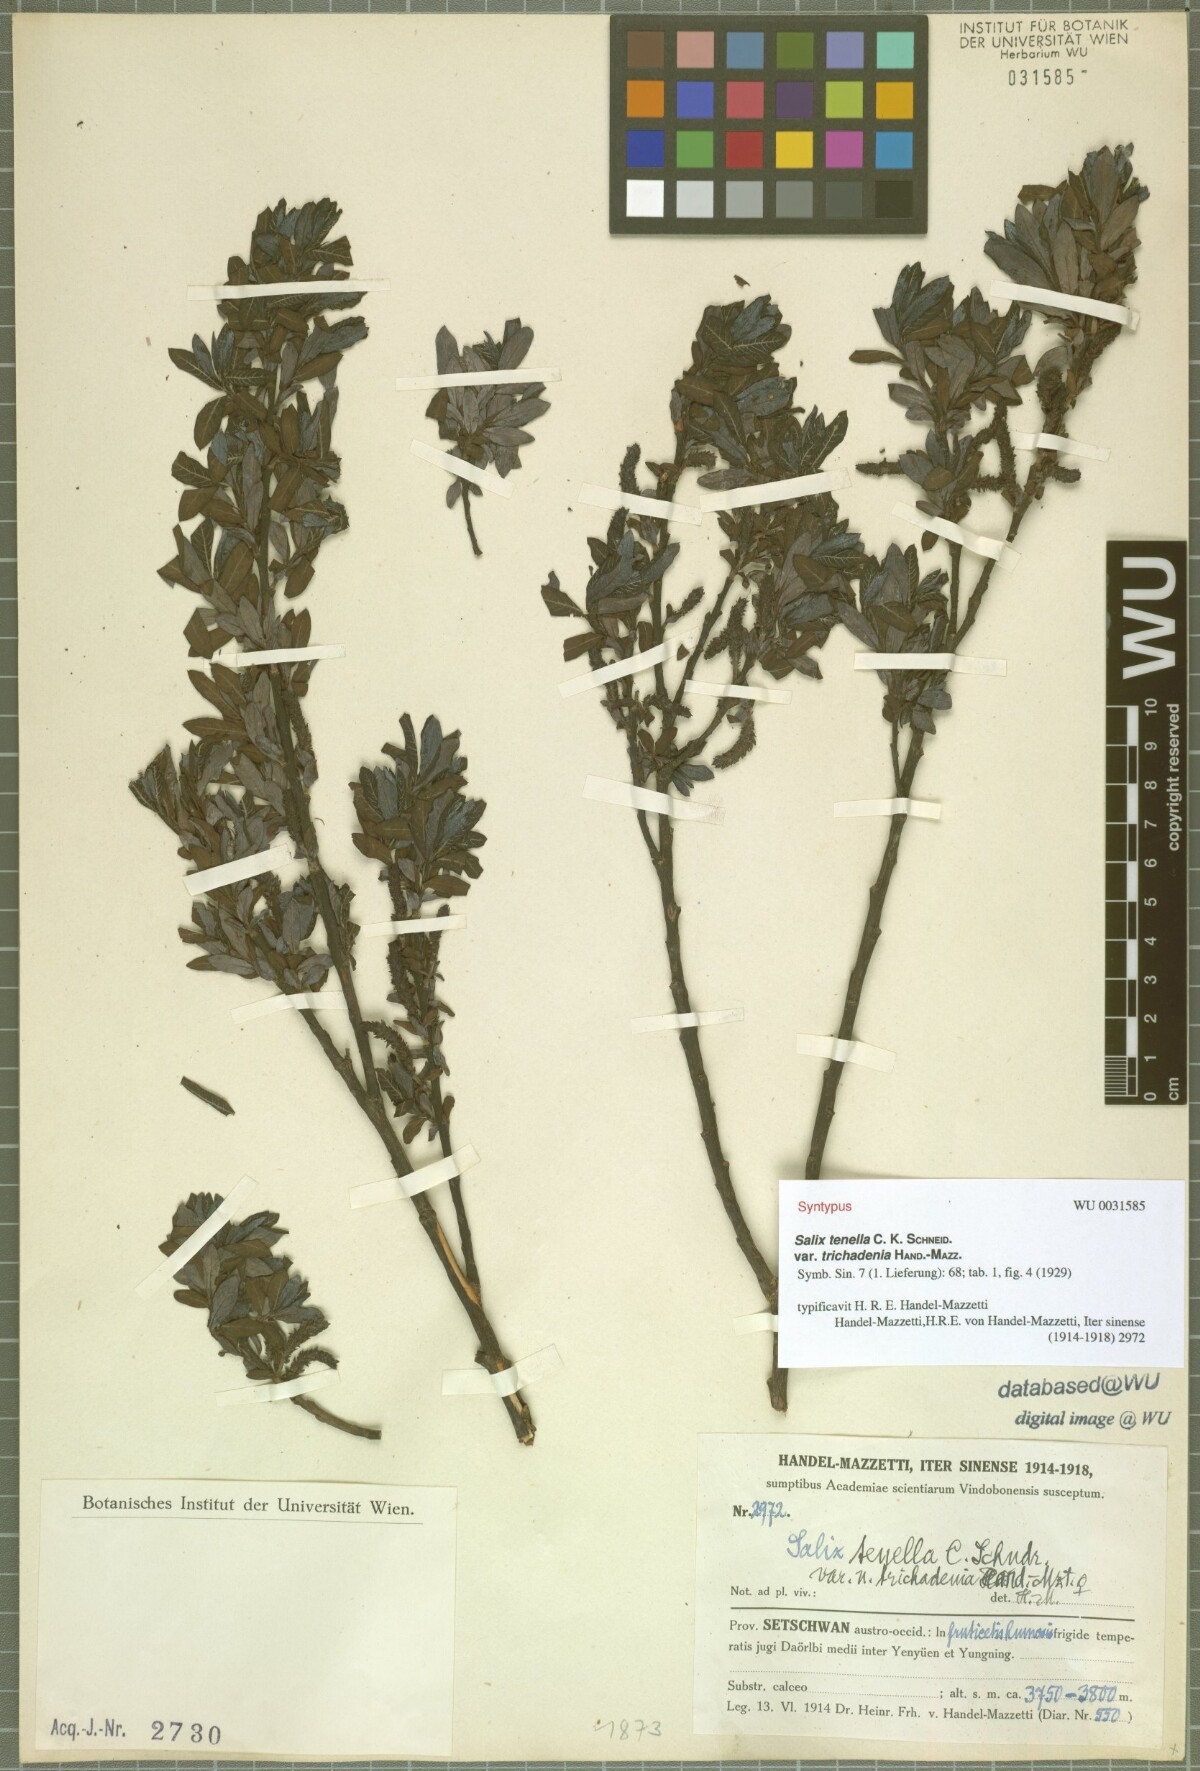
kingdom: Plantae
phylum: Tracheophyta
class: Magnoliopsida
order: Malpighiales
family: Salicaceae
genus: Salix
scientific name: Salix tenella
